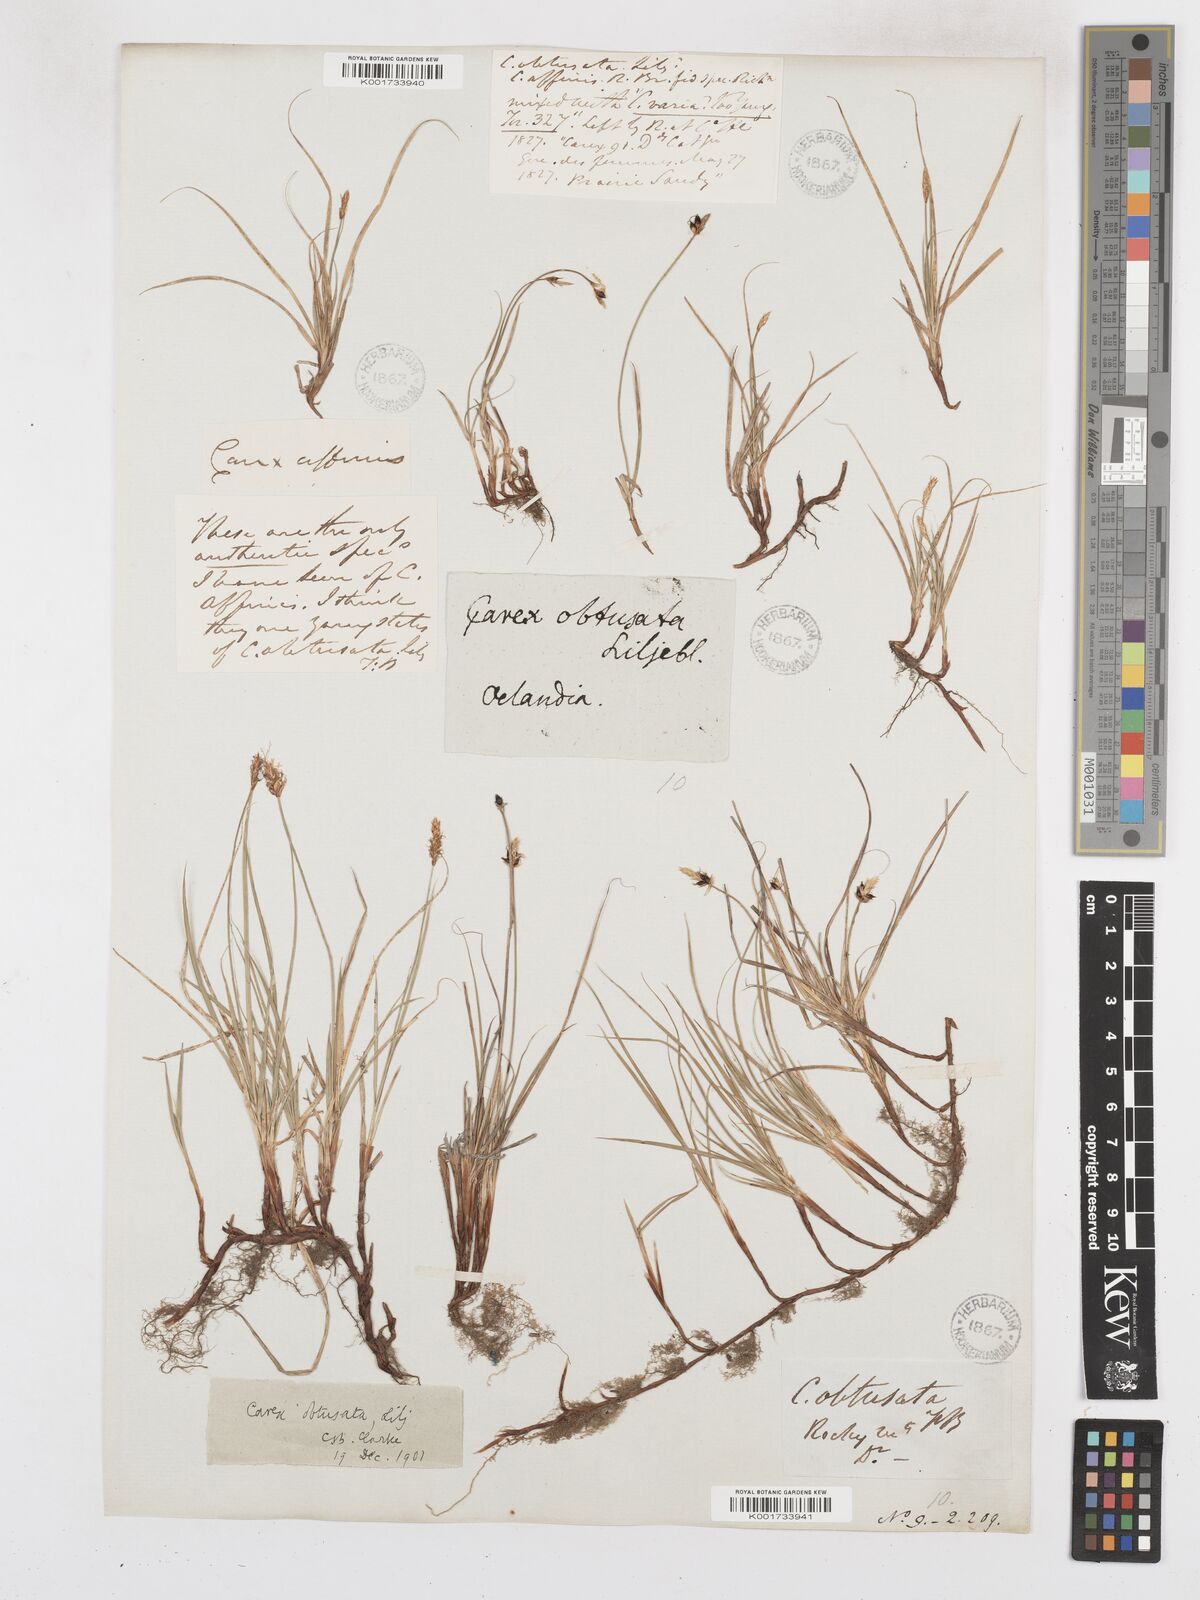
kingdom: Plantae
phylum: Tracheophyta
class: Liliopsida
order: Poales
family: Cyperaceae
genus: Carex
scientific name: Carex obtusata
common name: Blunt sedge
